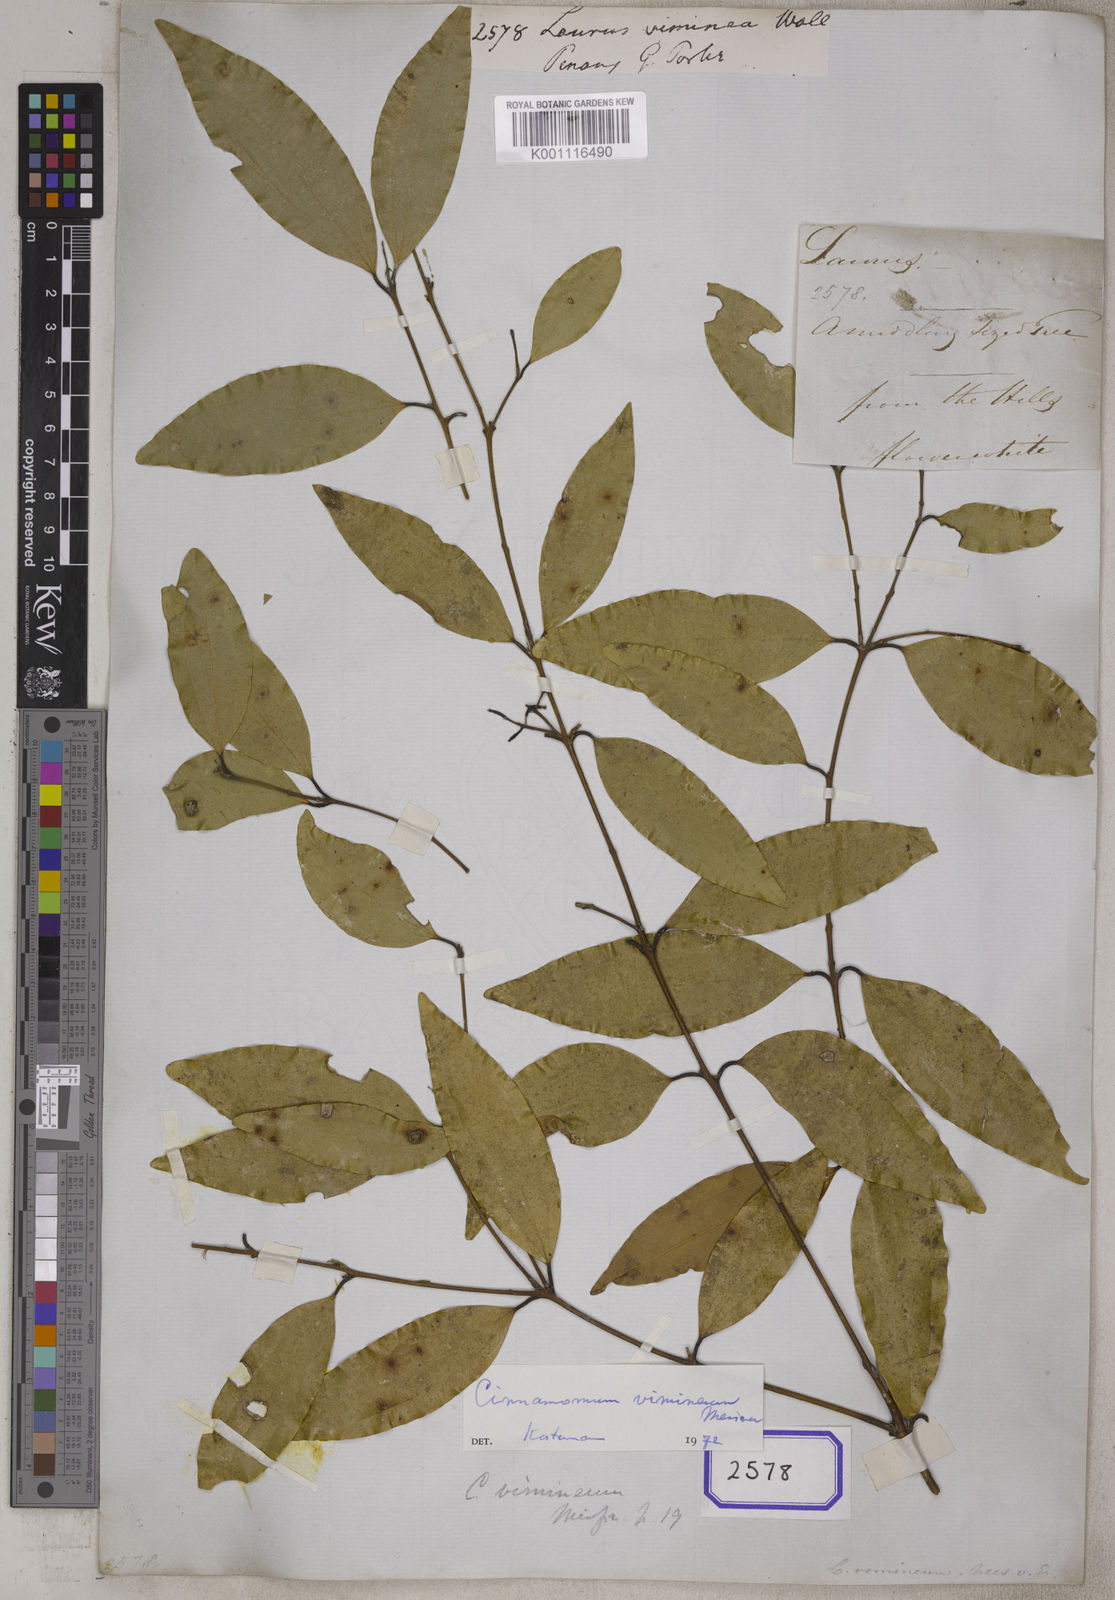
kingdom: Plantae
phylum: Tracheophyta
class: Magnoliopsida
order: Laurales
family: Lauraceae
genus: Cinnamomum
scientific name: Cinnamomum vimineum
